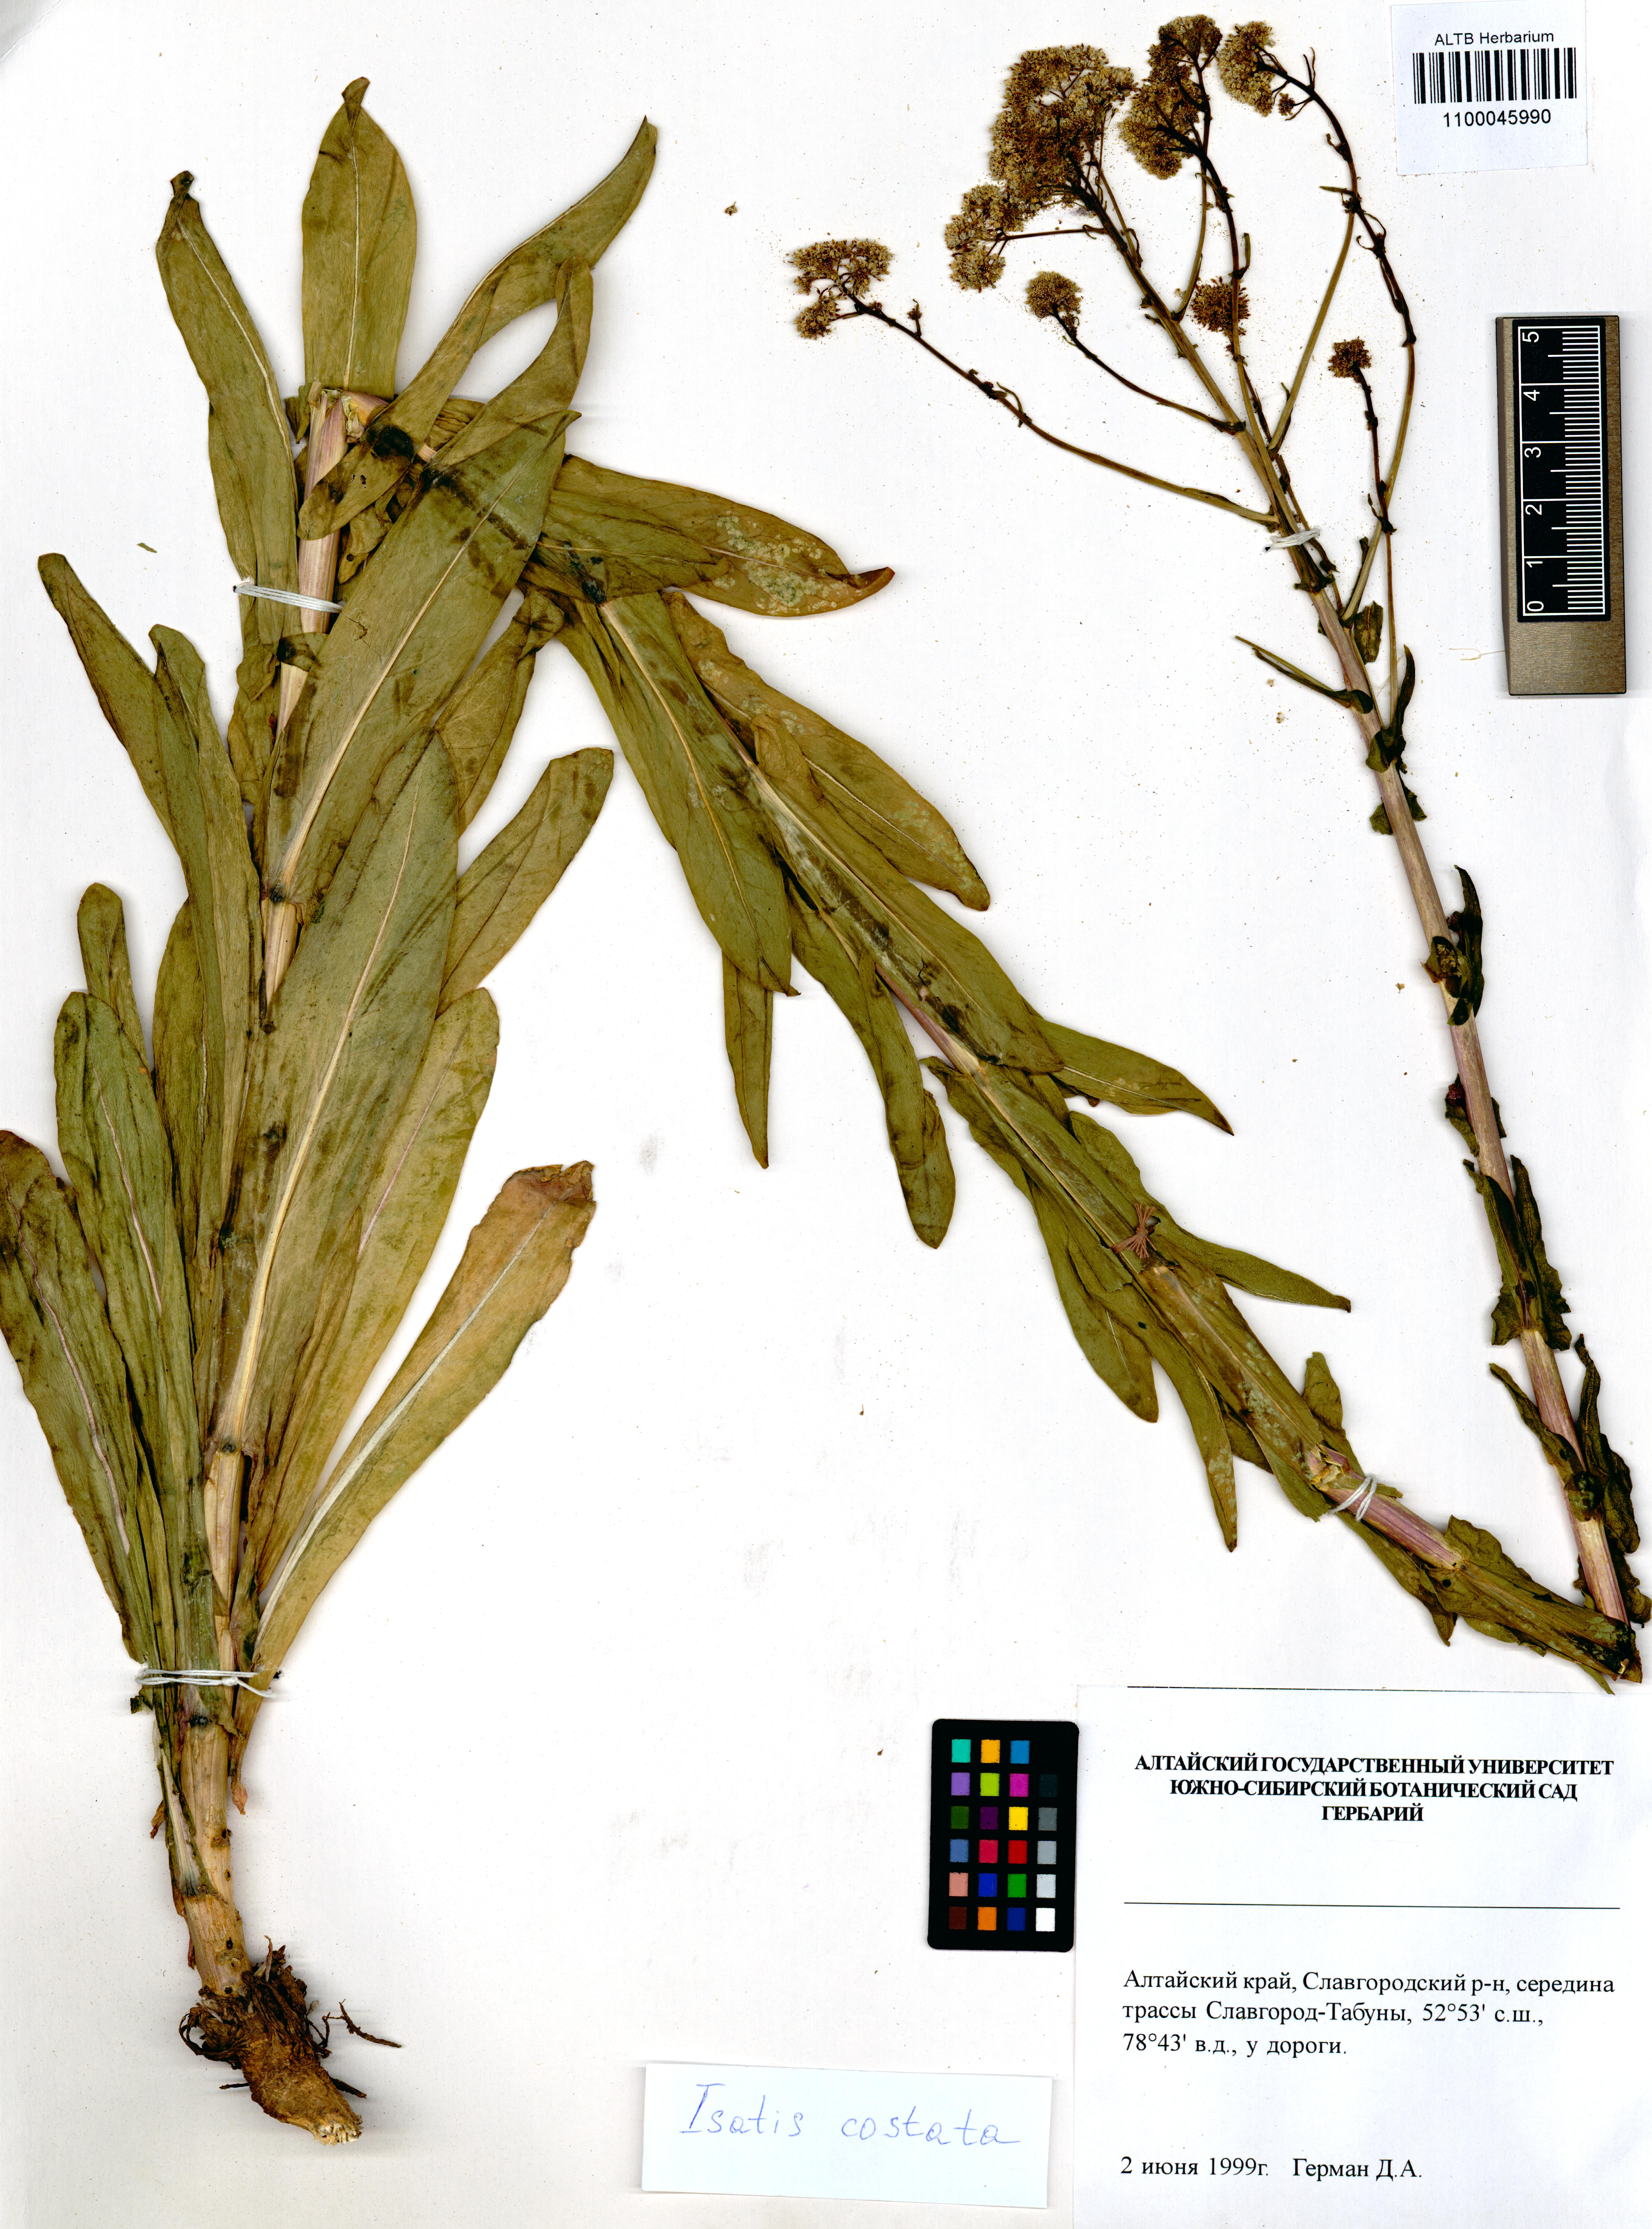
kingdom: Plantae
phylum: Tracheophyta
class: Magnoliopsida
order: Brassicales
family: Brassicaceae
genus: Isatis
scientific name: Isatis costata
